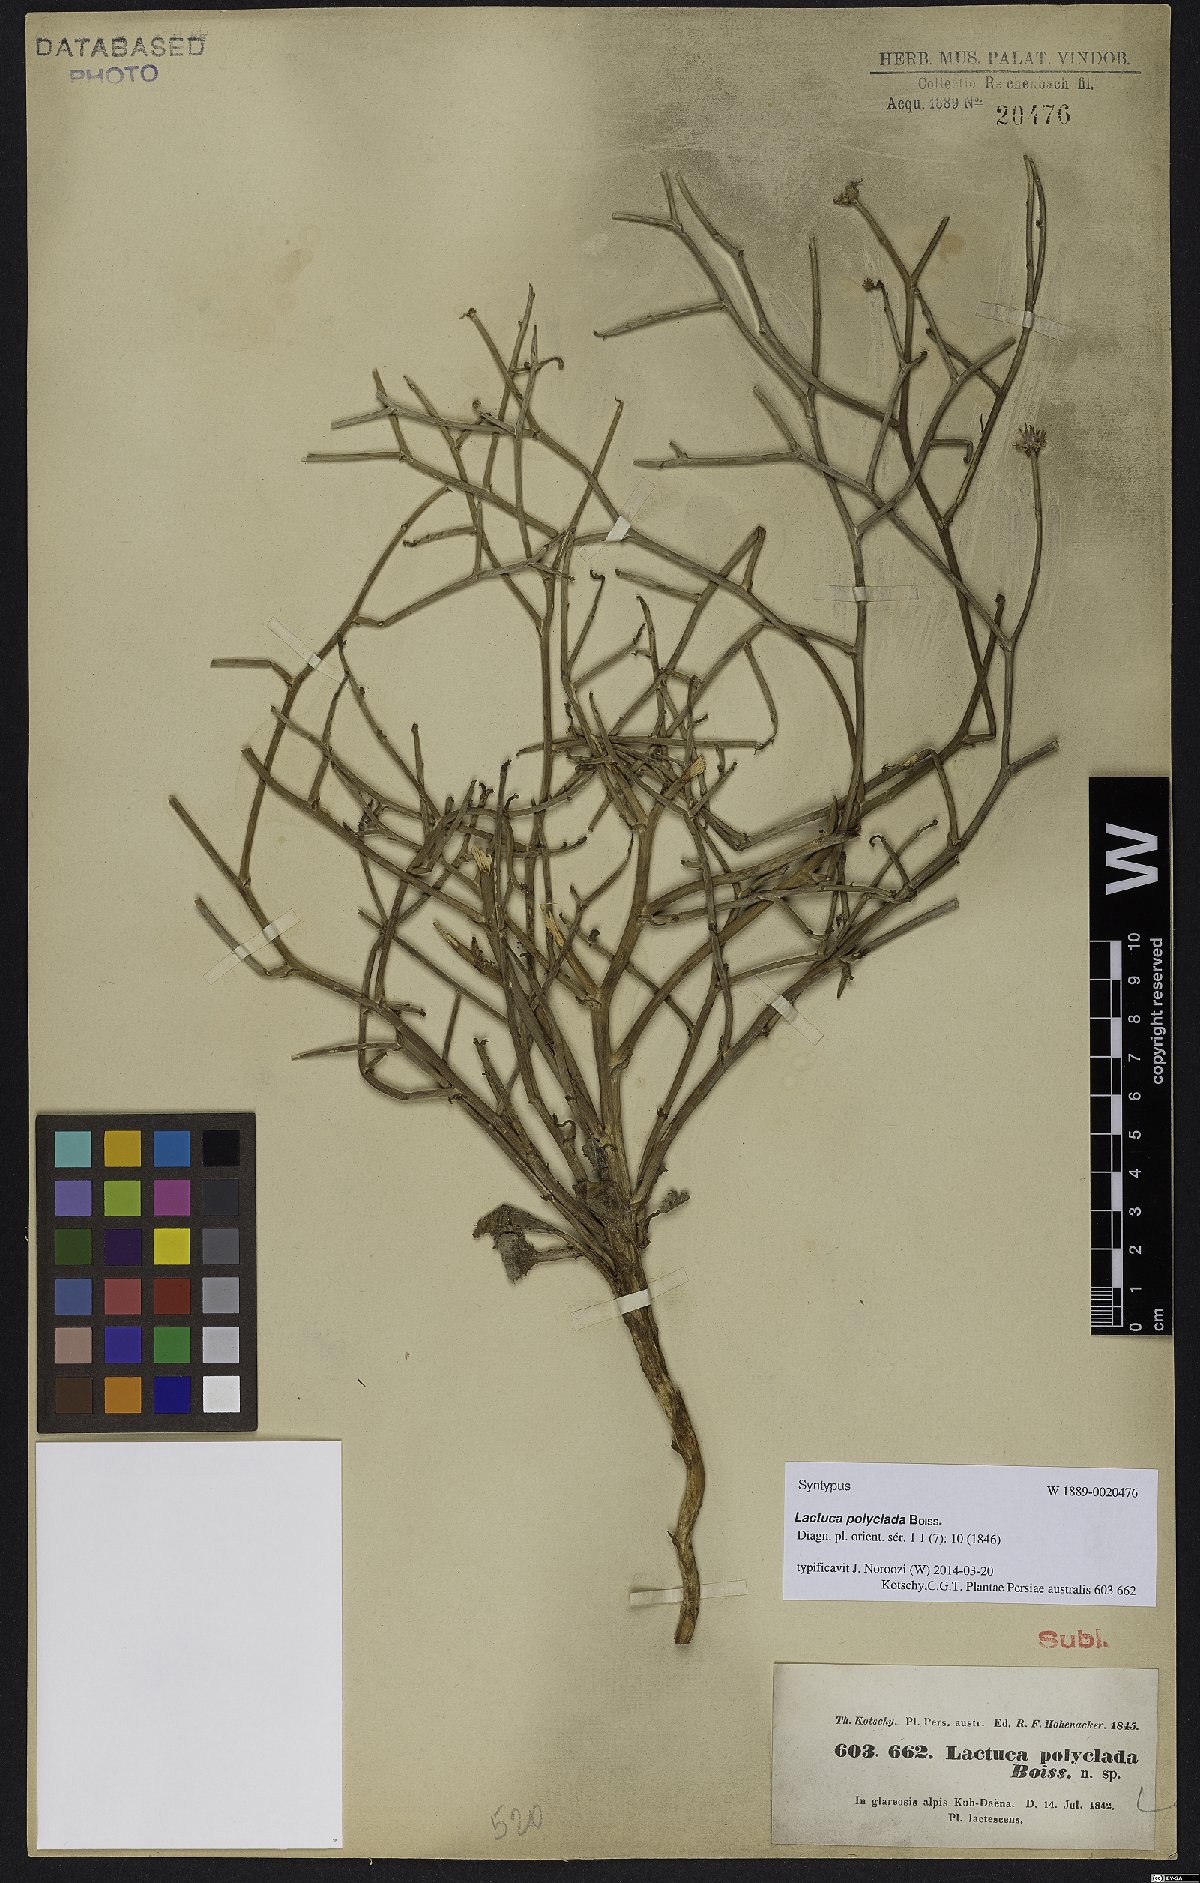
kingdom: Plantae
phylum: Tracheophyta
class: Magnoliopsida
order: Asterales
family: Asteraceae
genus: Lactuca
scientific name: Lactuca polyclada
